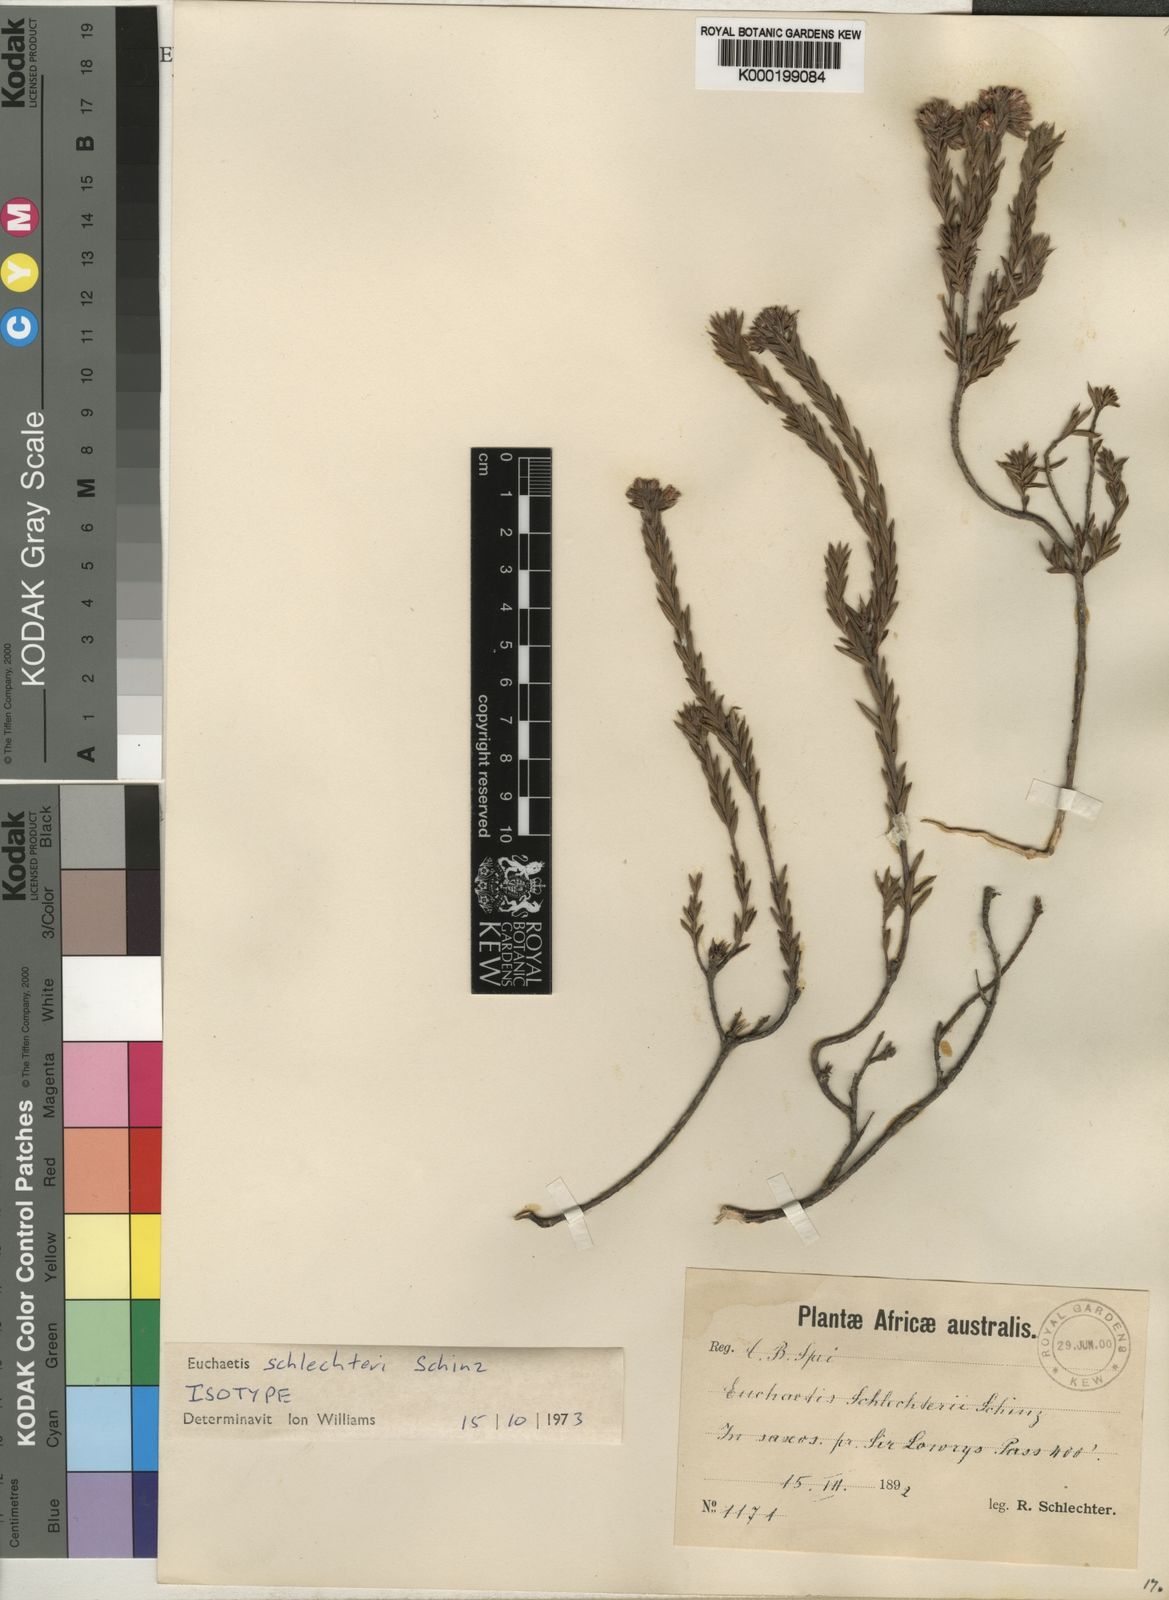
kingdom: Plantae
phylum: Tracheophyta
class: Magnoliopsida
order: Sapindales
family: Rutaceae
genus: Euchaetis
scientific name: Euchaetis schlechteri
